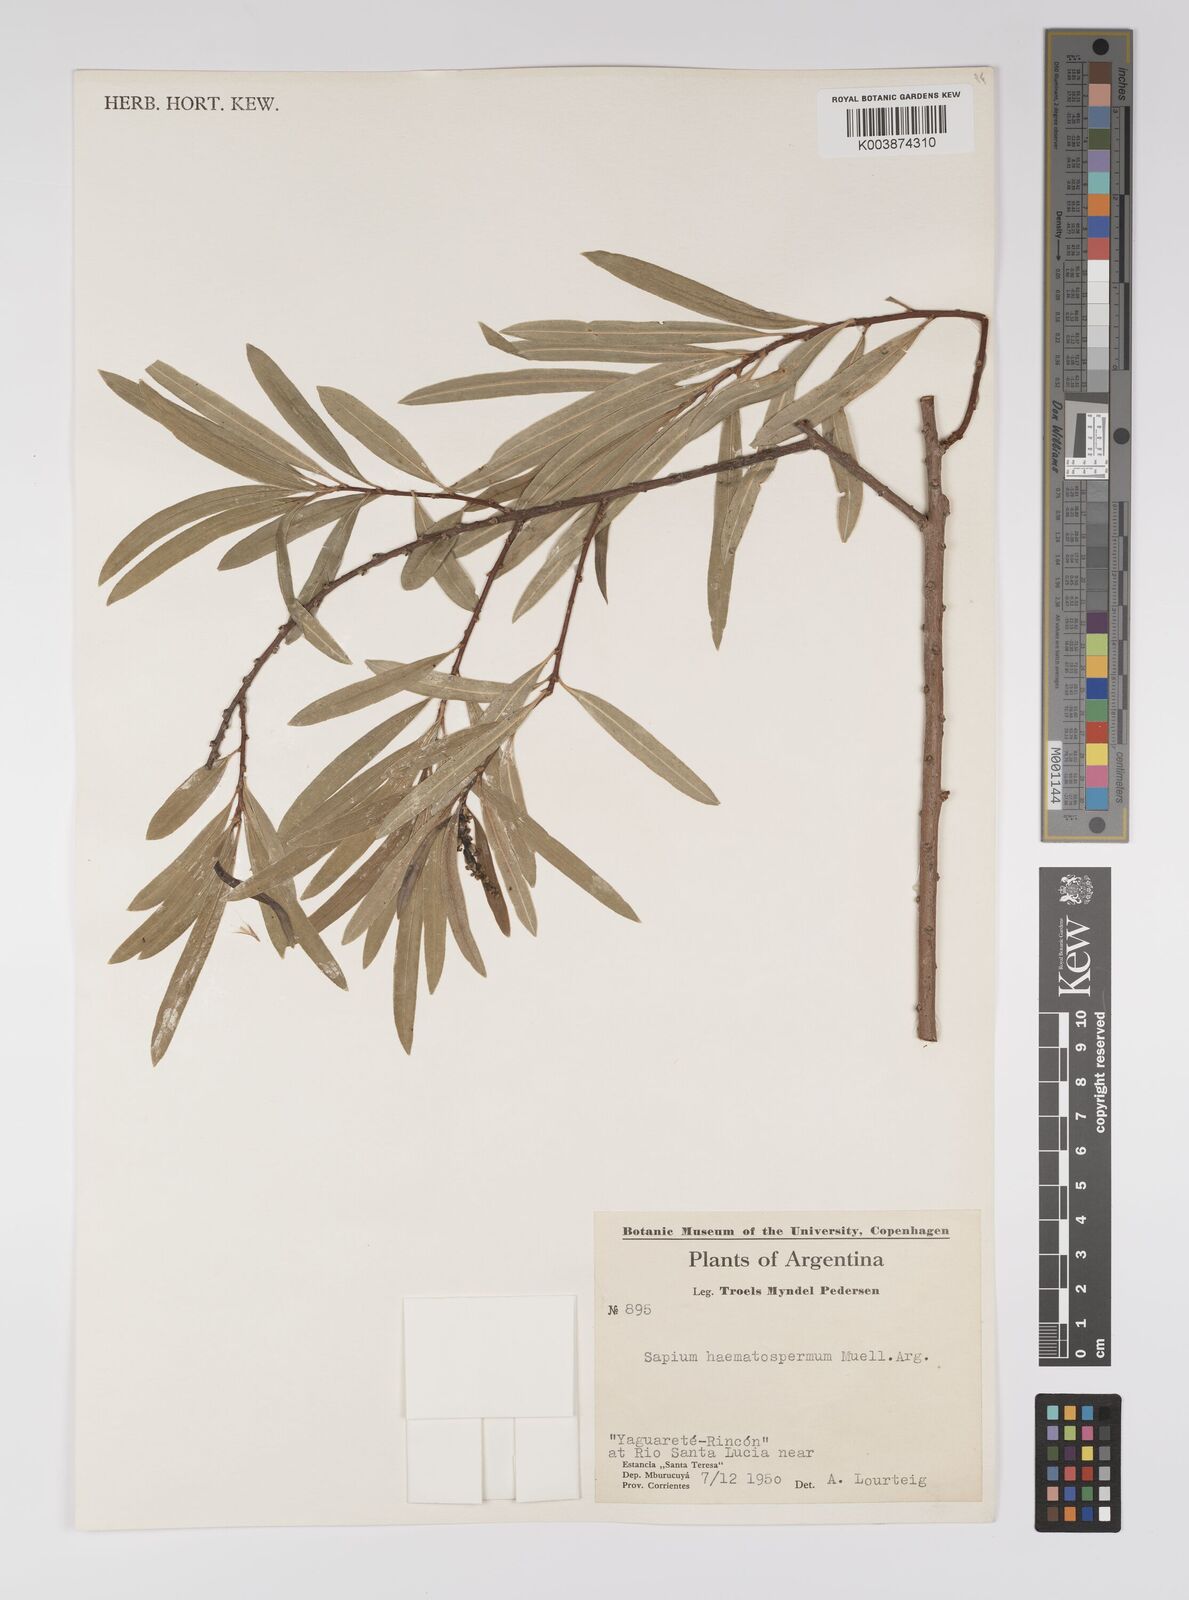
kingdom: Plantae
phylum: Tracheophyta
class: Magnoliopsida
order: Malpighiales
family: Euphorbiaceae
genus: Sapium
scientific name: Sapium haematospermum
